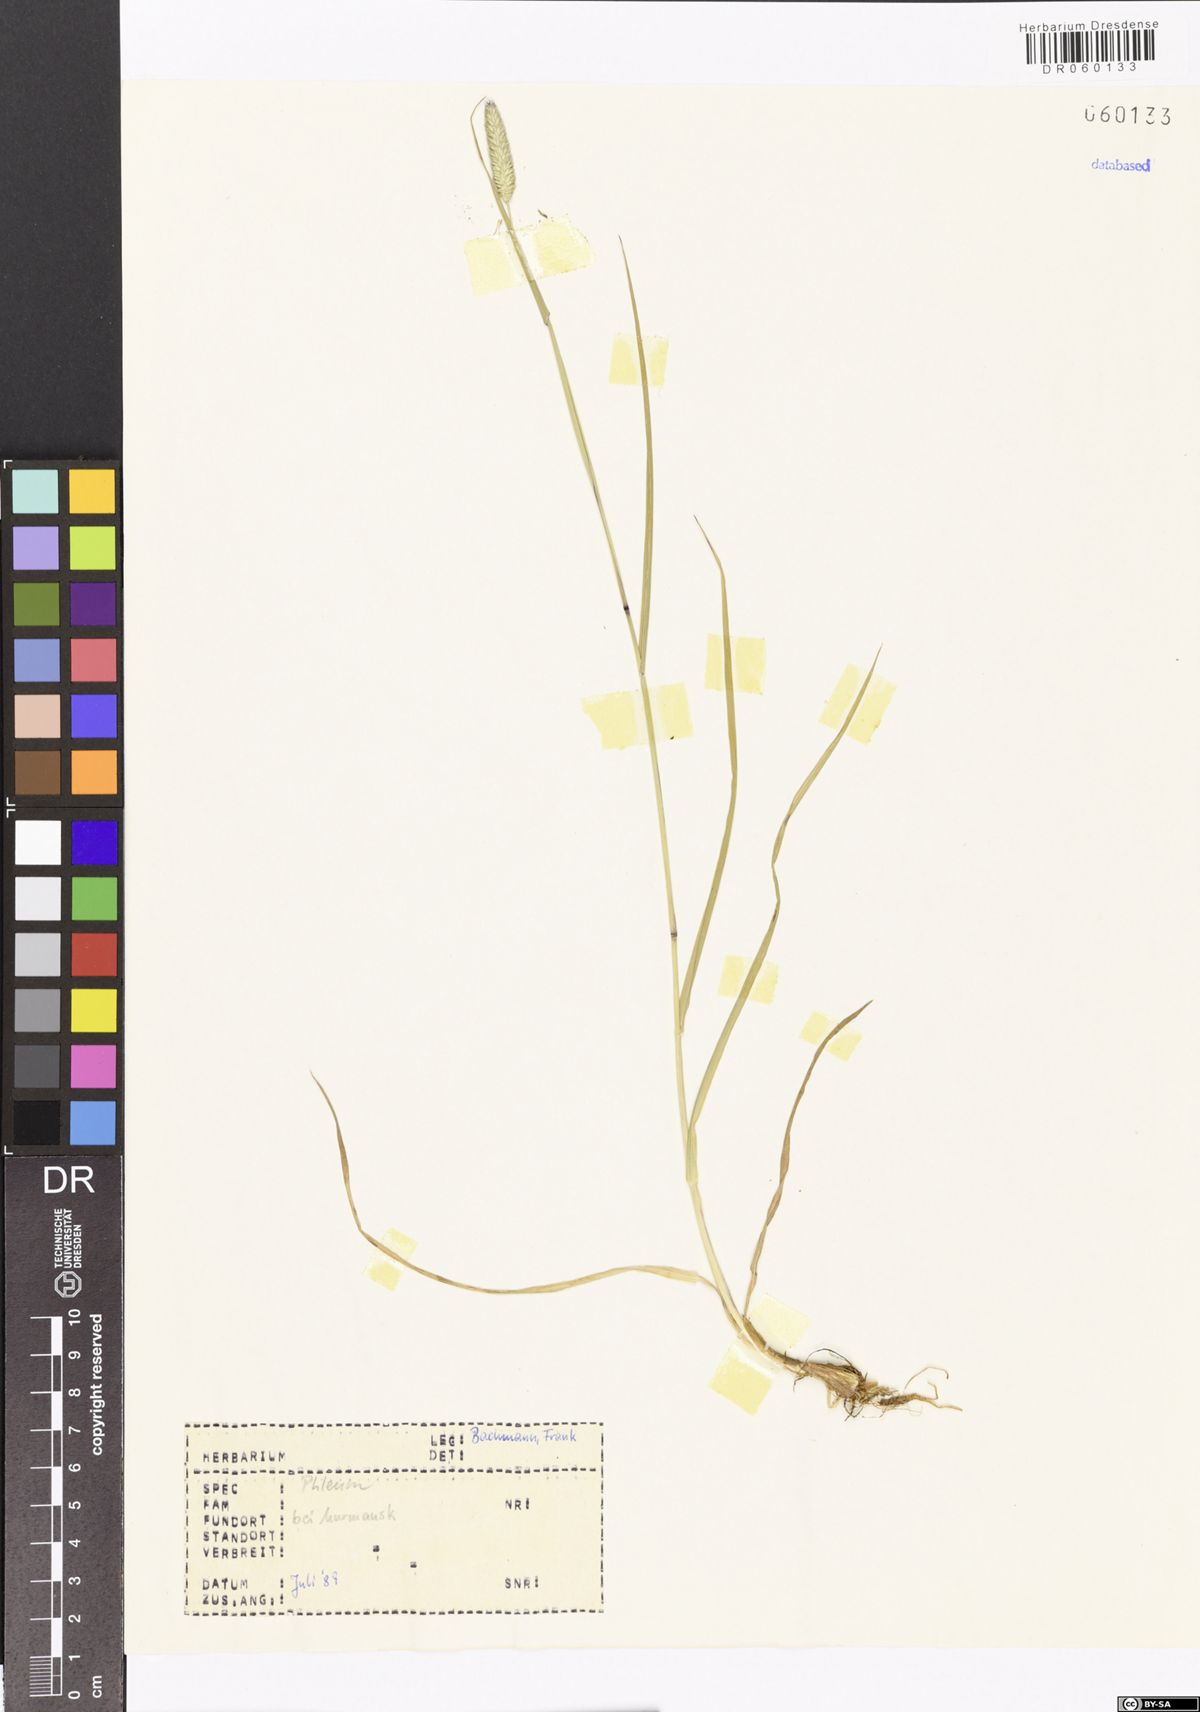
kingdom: Plantae
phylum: Tracheophyta
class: Liliopsida
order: Poales
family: Poaceae
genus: Phleum
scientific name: Phleum
